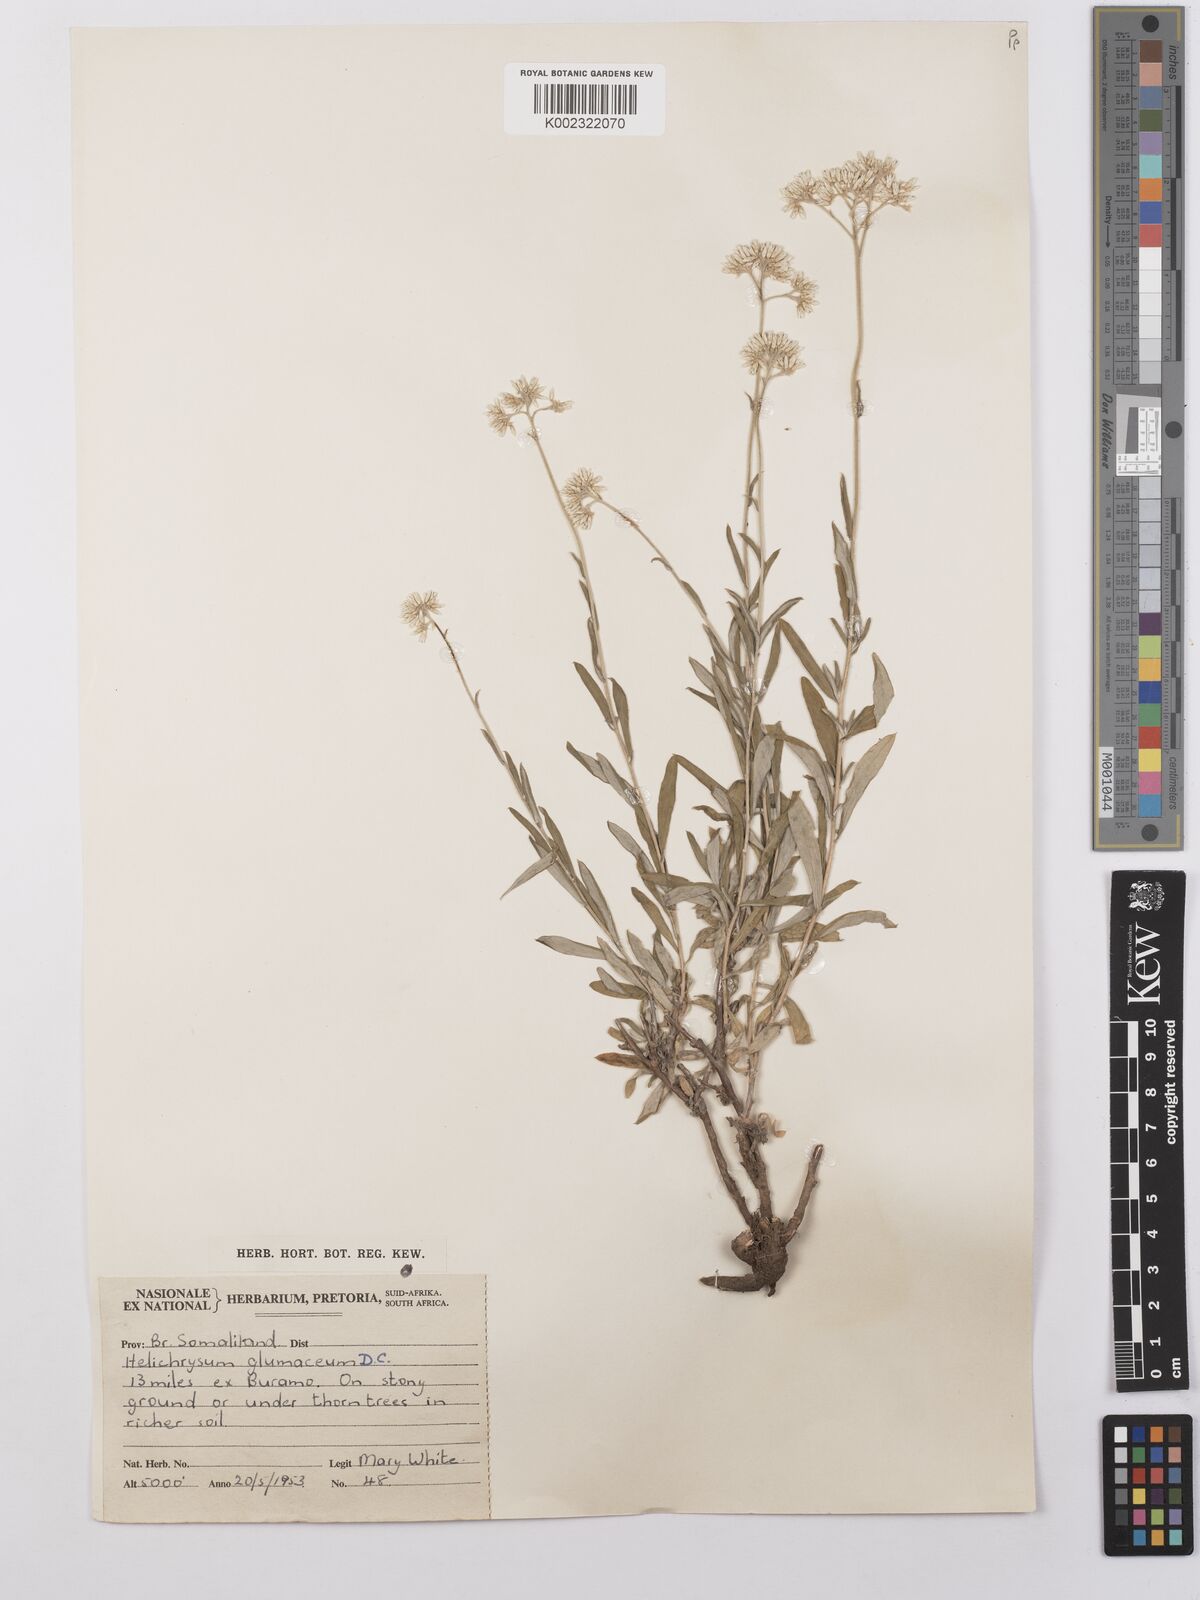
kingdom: Plantae
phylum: Tracheophyta
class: Magnoliopsida
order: Asterales
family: Asteraceae
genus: Helichrysum
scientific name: Helichrysum glumaceum
